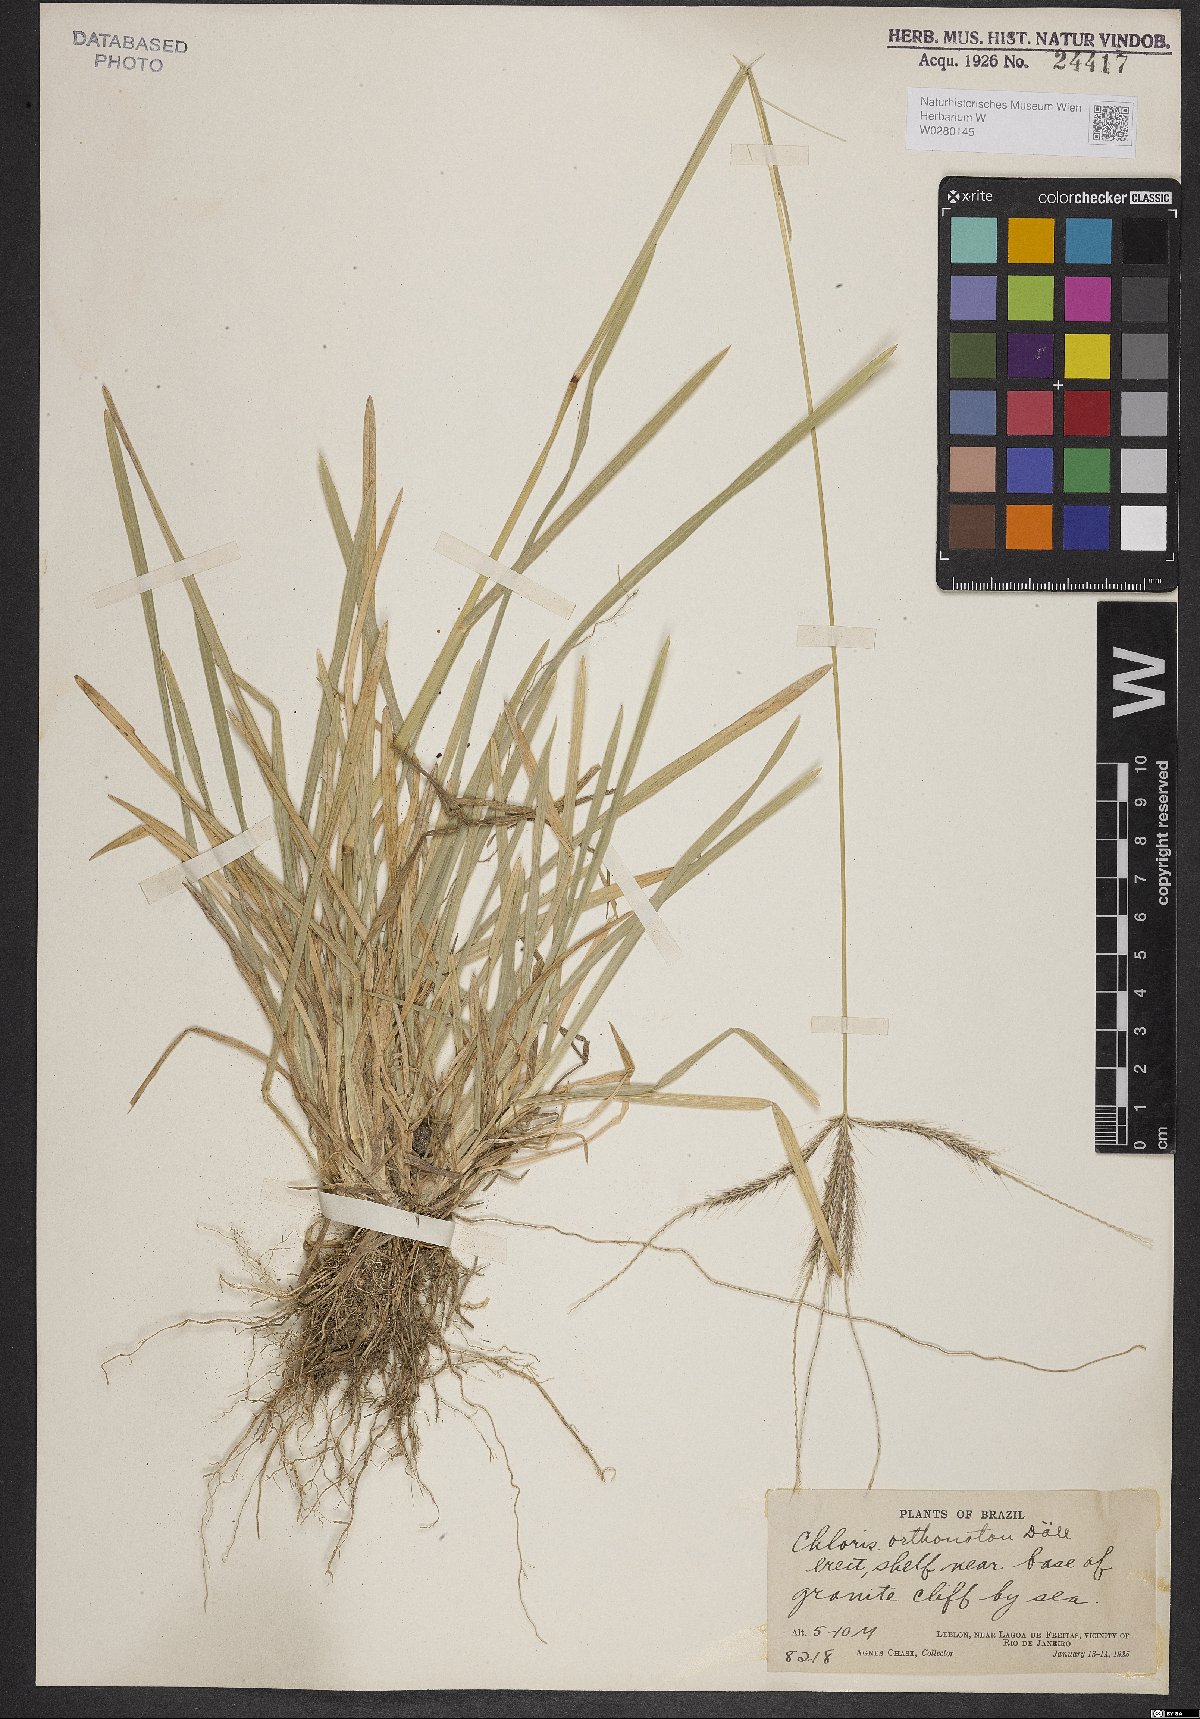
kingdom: Plantae
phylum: Tracheophyta
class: Liliopsida
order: Poales
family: Poaceae
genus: Chloris
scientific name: Chloris orthonoton
